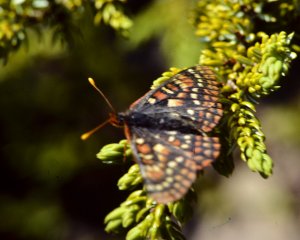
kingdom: Animalia
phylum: Arthropoda
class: Insecta
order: Lepidoptera
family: Nymphalidae
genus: Occidryas
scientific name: Occidryas editha
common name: Edith's Checkerspot
